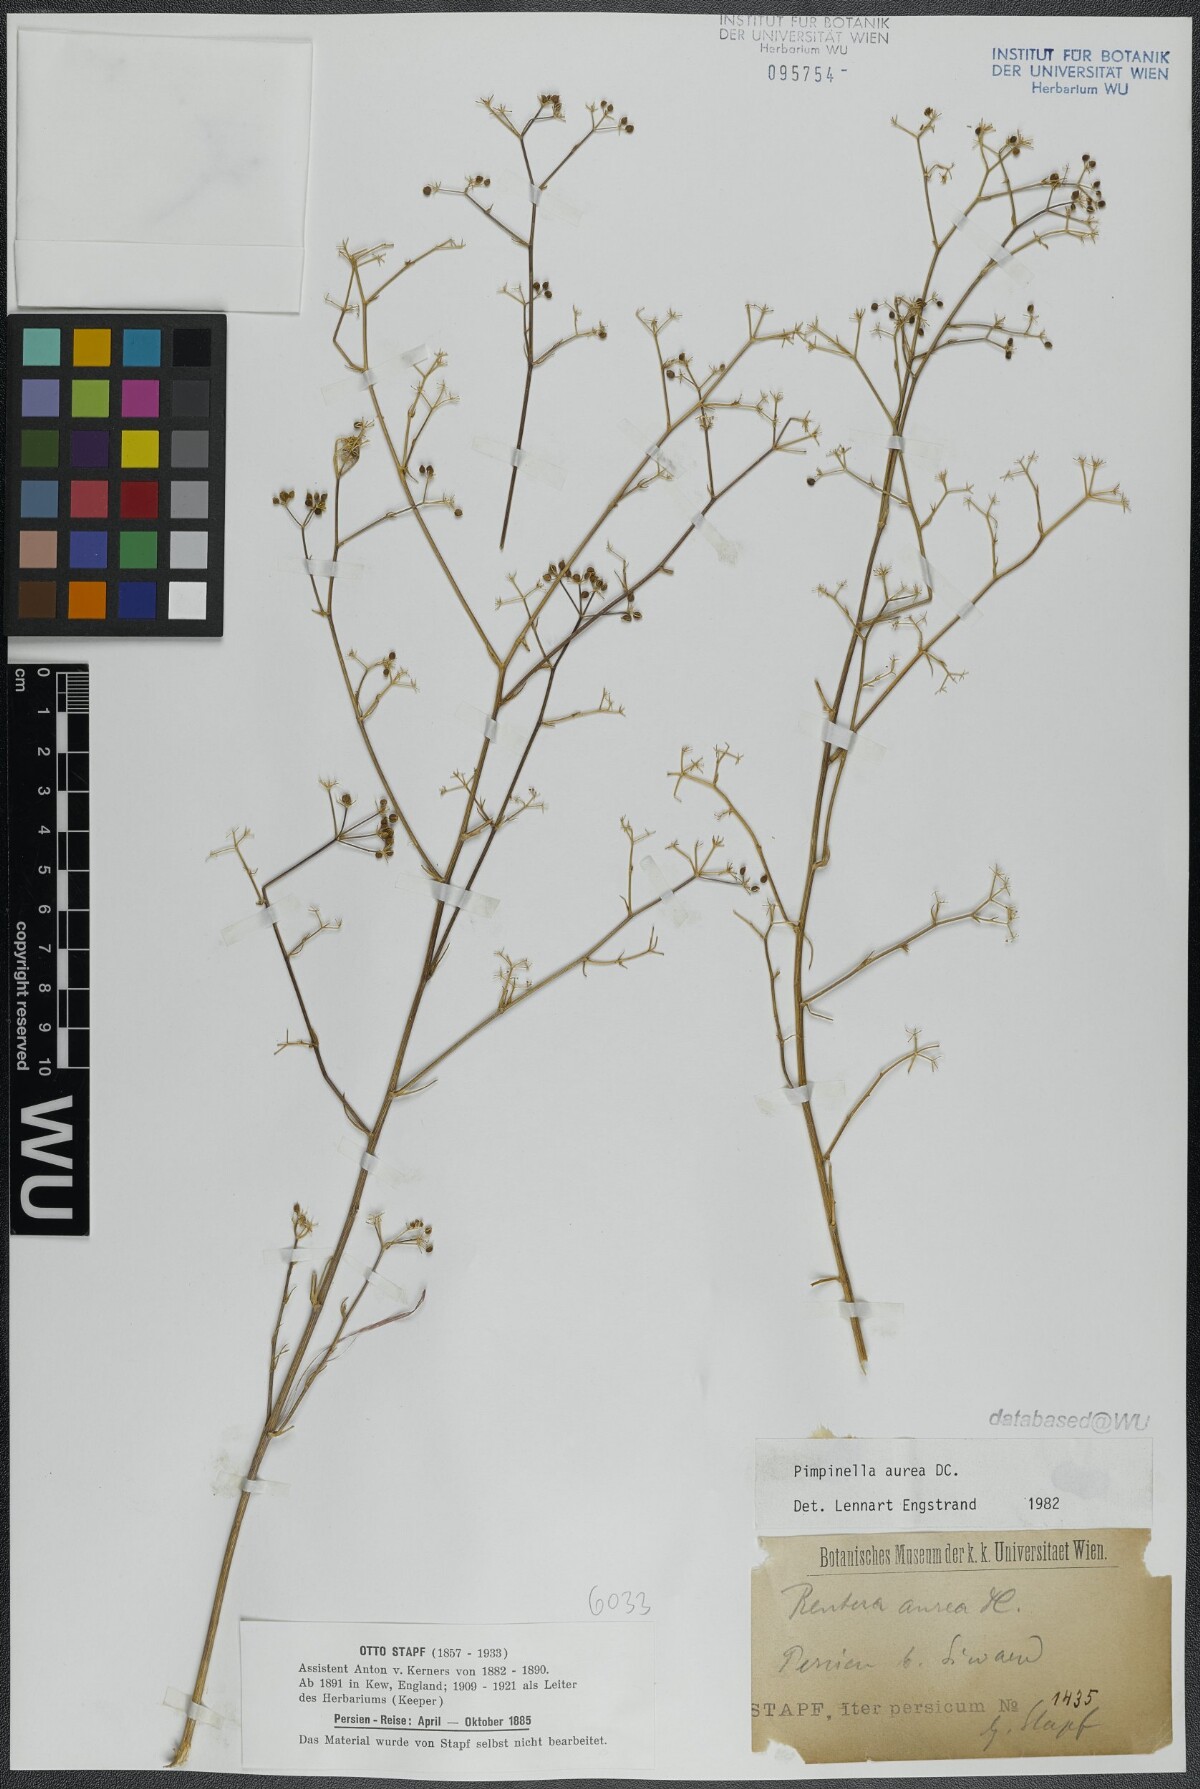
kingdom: Plantae
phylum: Tracheophyta
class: Magnoliopsida
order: Apiales
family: Apiaceae
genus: Pimpinella
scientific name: Pimpinella aurea
